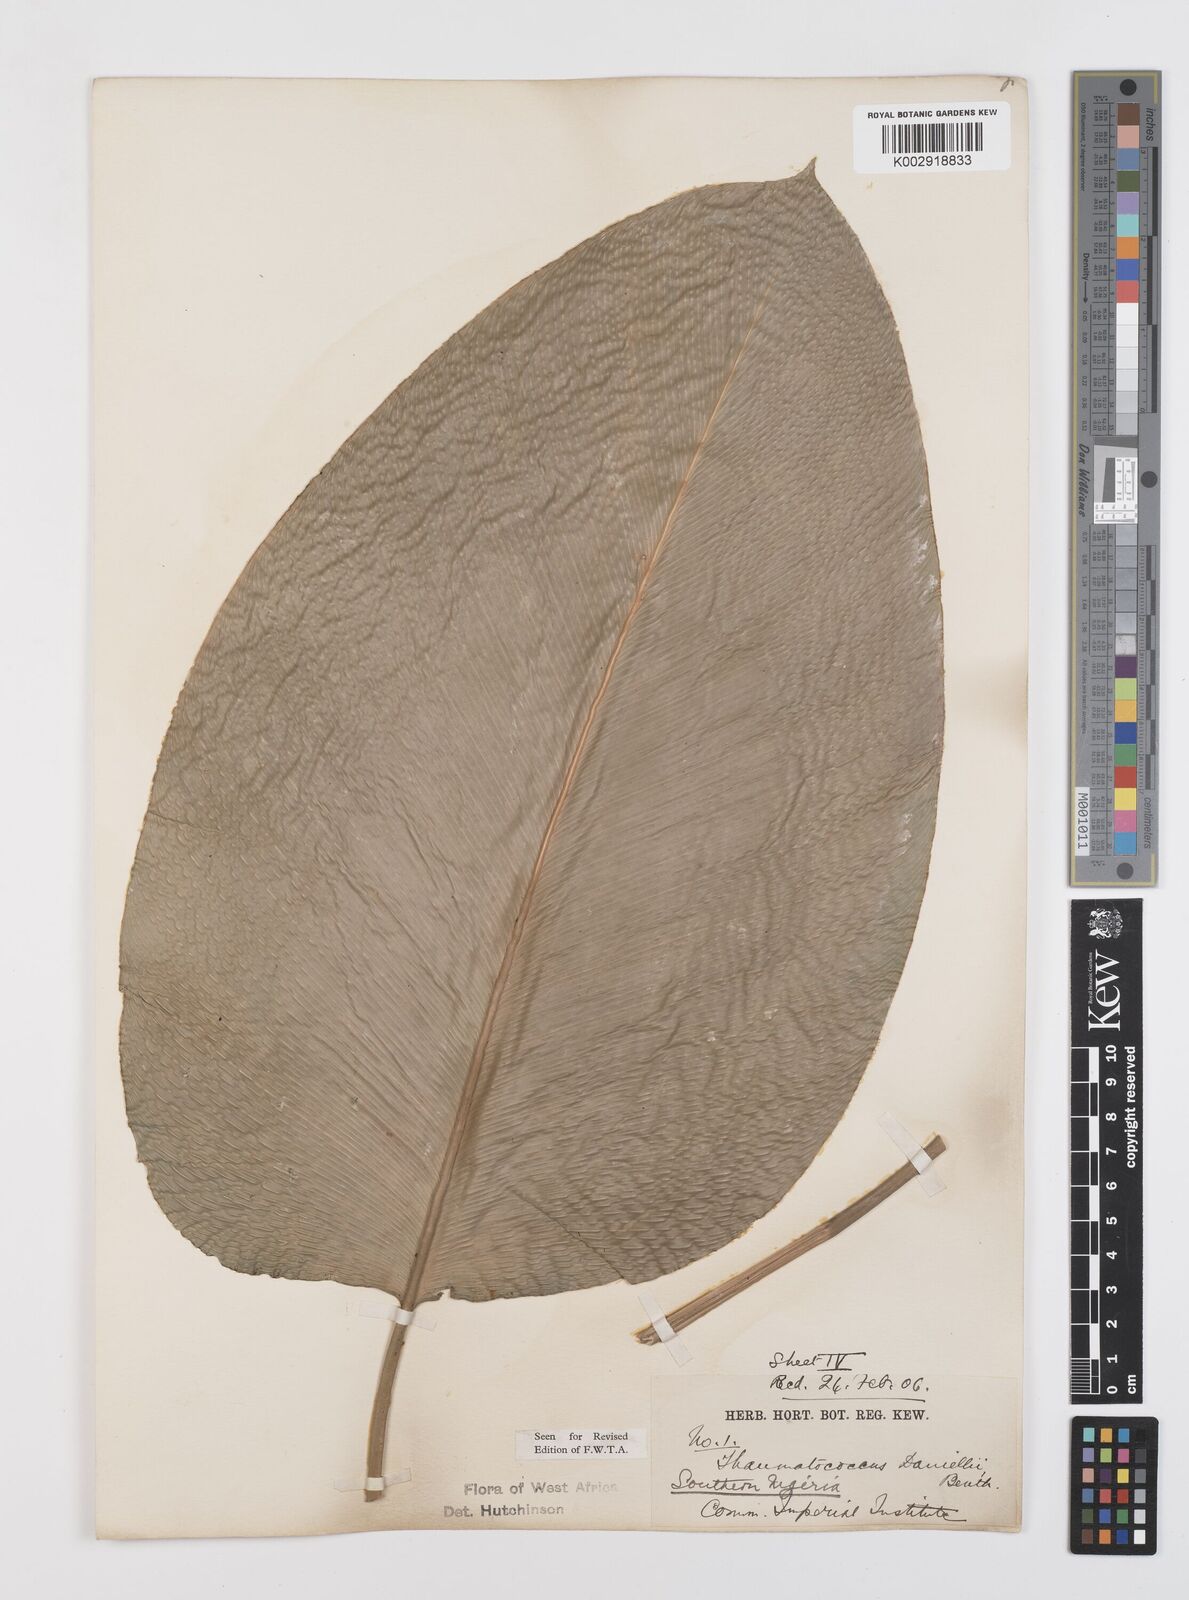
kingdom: Plantae
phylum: Tracheophyta
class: Liliopsida
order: Zingiberales
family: Marantaceae
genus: Thaumatococcus
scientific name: Thaumatococcus daniellii
